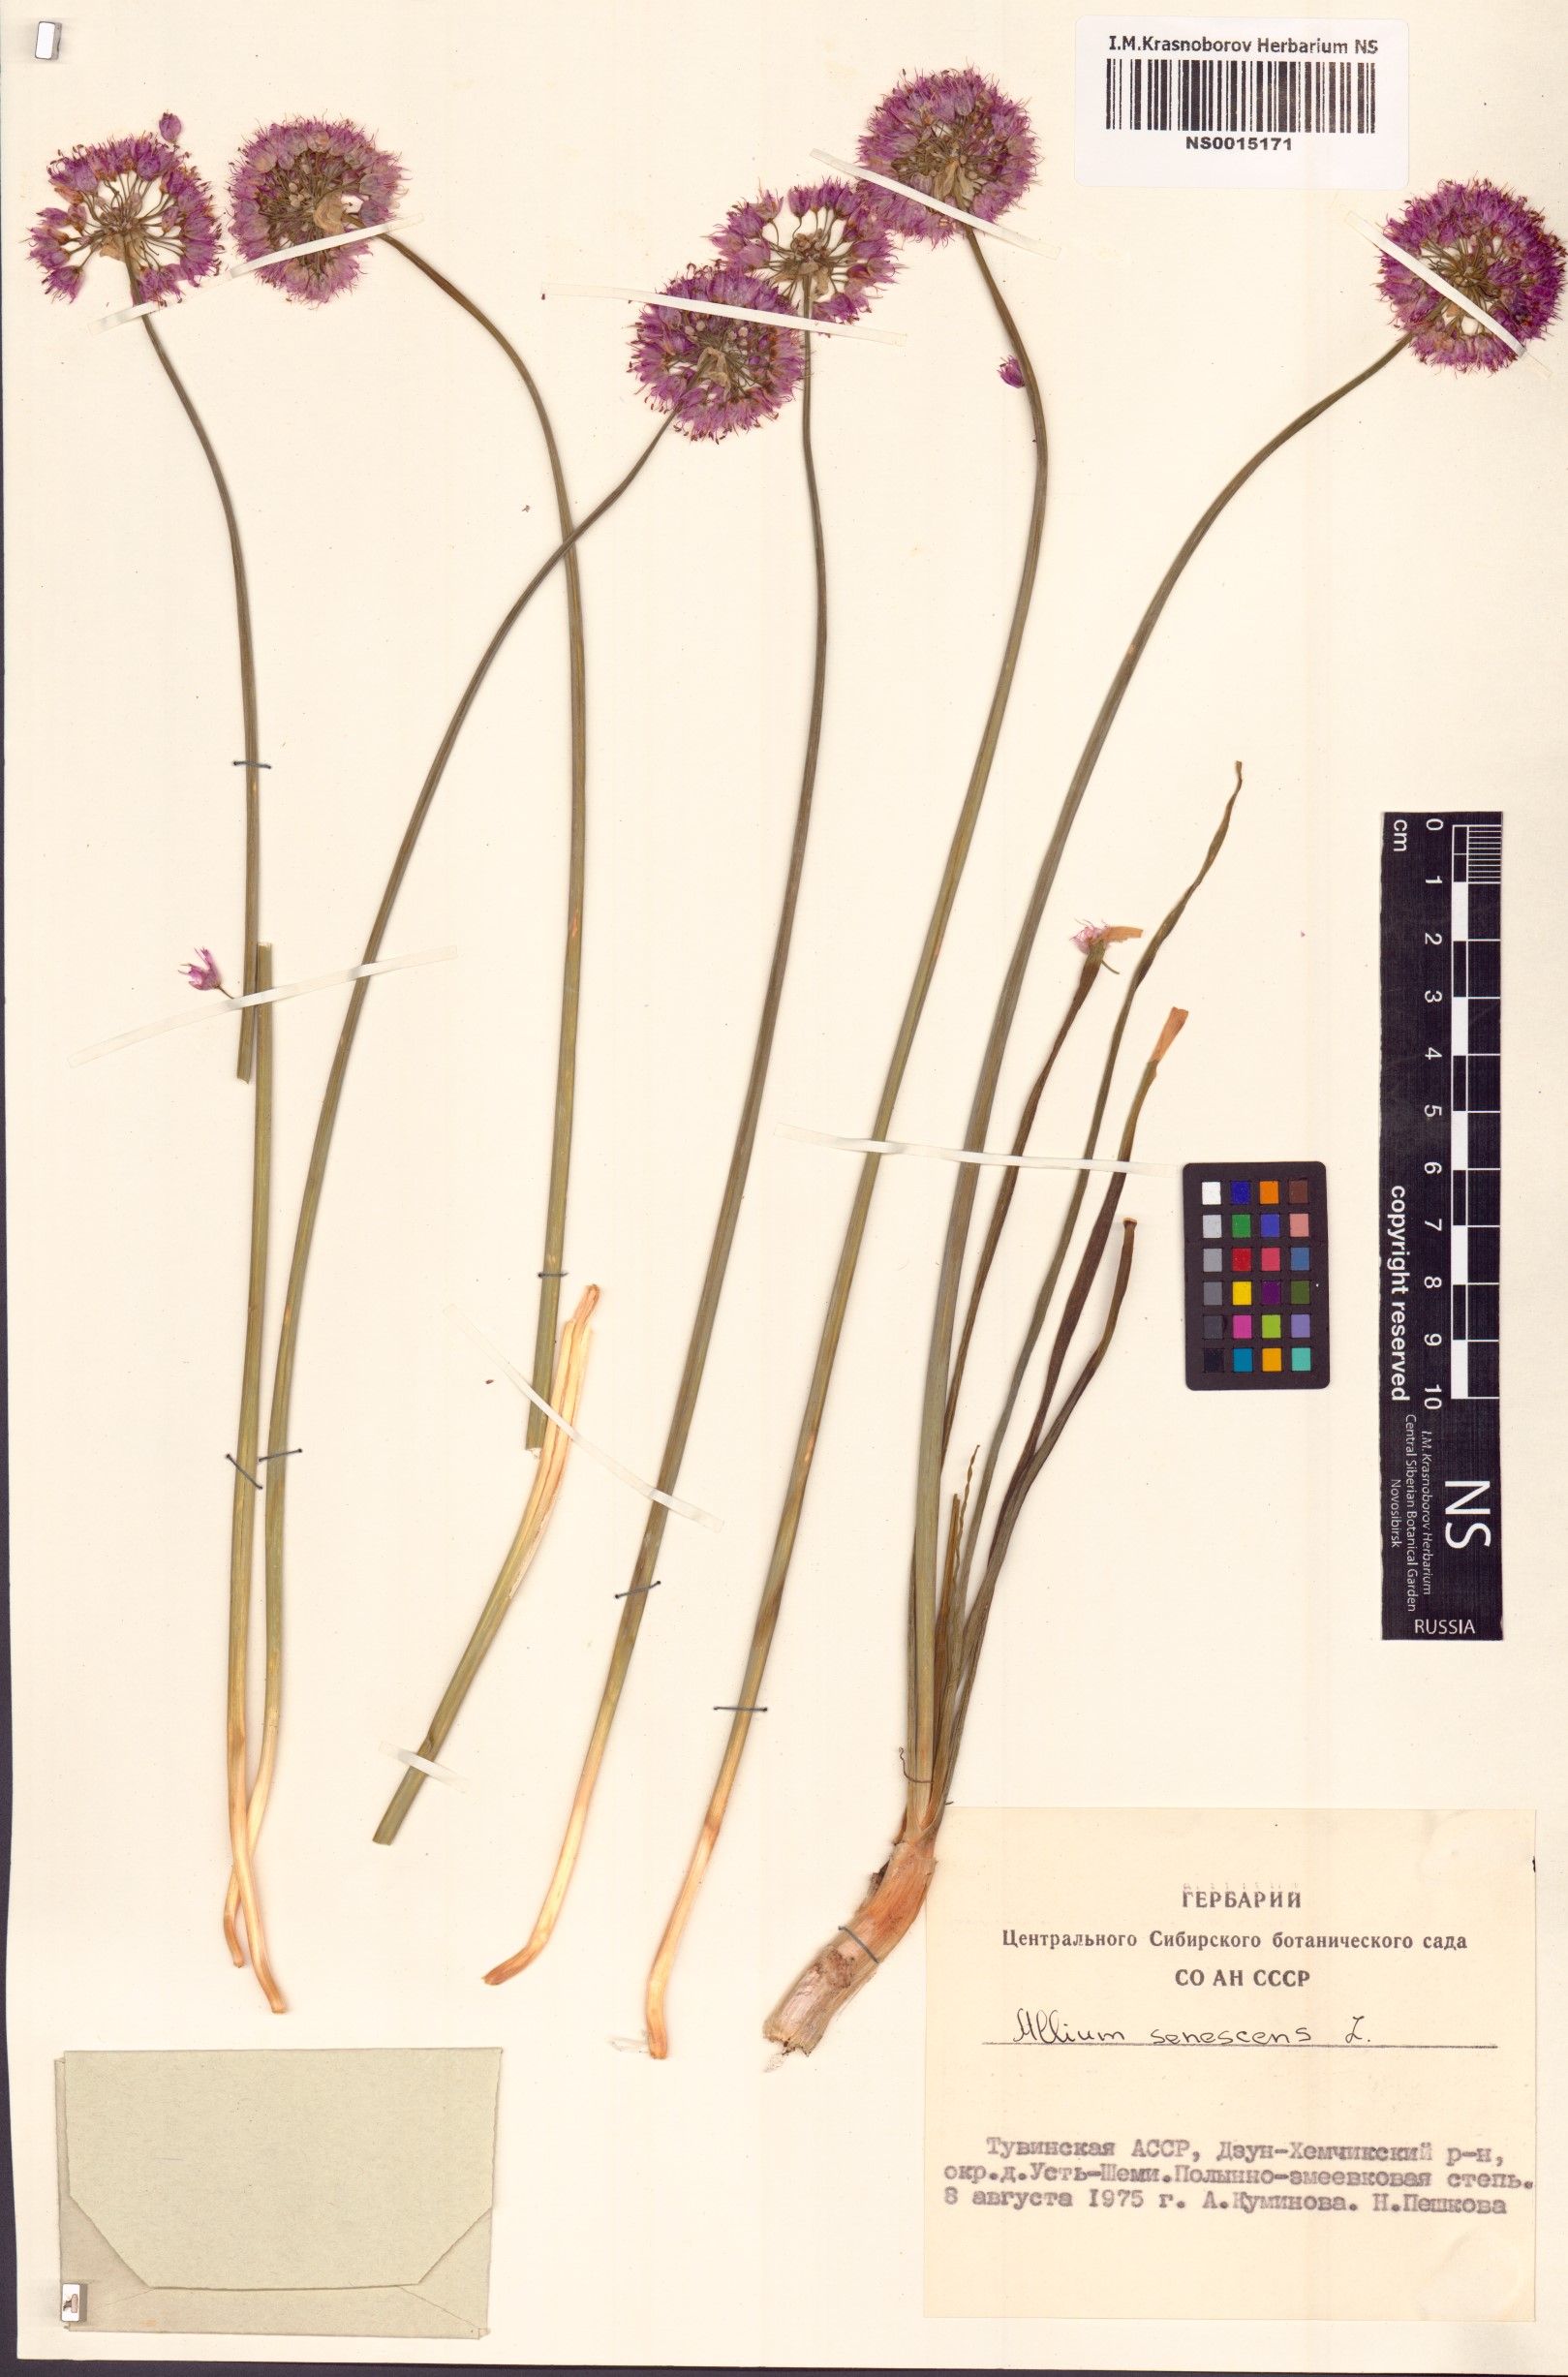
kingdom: Plantae
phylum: Tracheophyta
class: Liliopsida
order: Asparagales
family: Amaryllidaceae
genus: Allium
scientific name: Allium senescens
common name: German garlic
